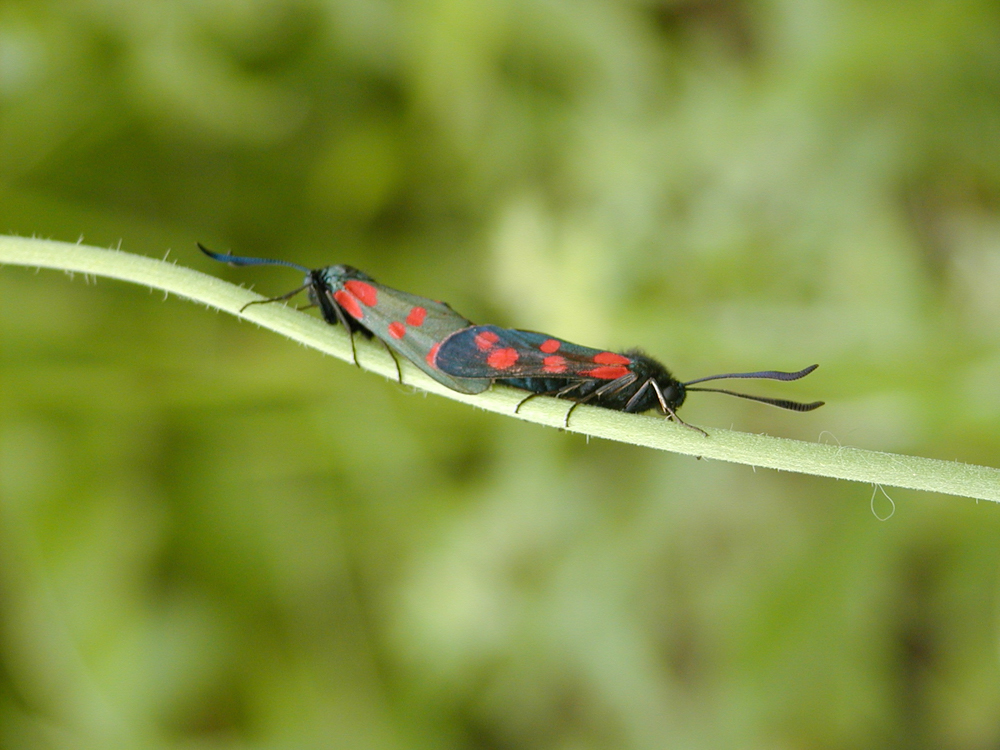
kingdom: Animalia
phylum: Arthropoda
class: Insecta
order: Lepidoptera
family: Zygaenidae
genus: Zygaena
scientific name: Zygaena filipendulae
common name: Six-spot burnet
